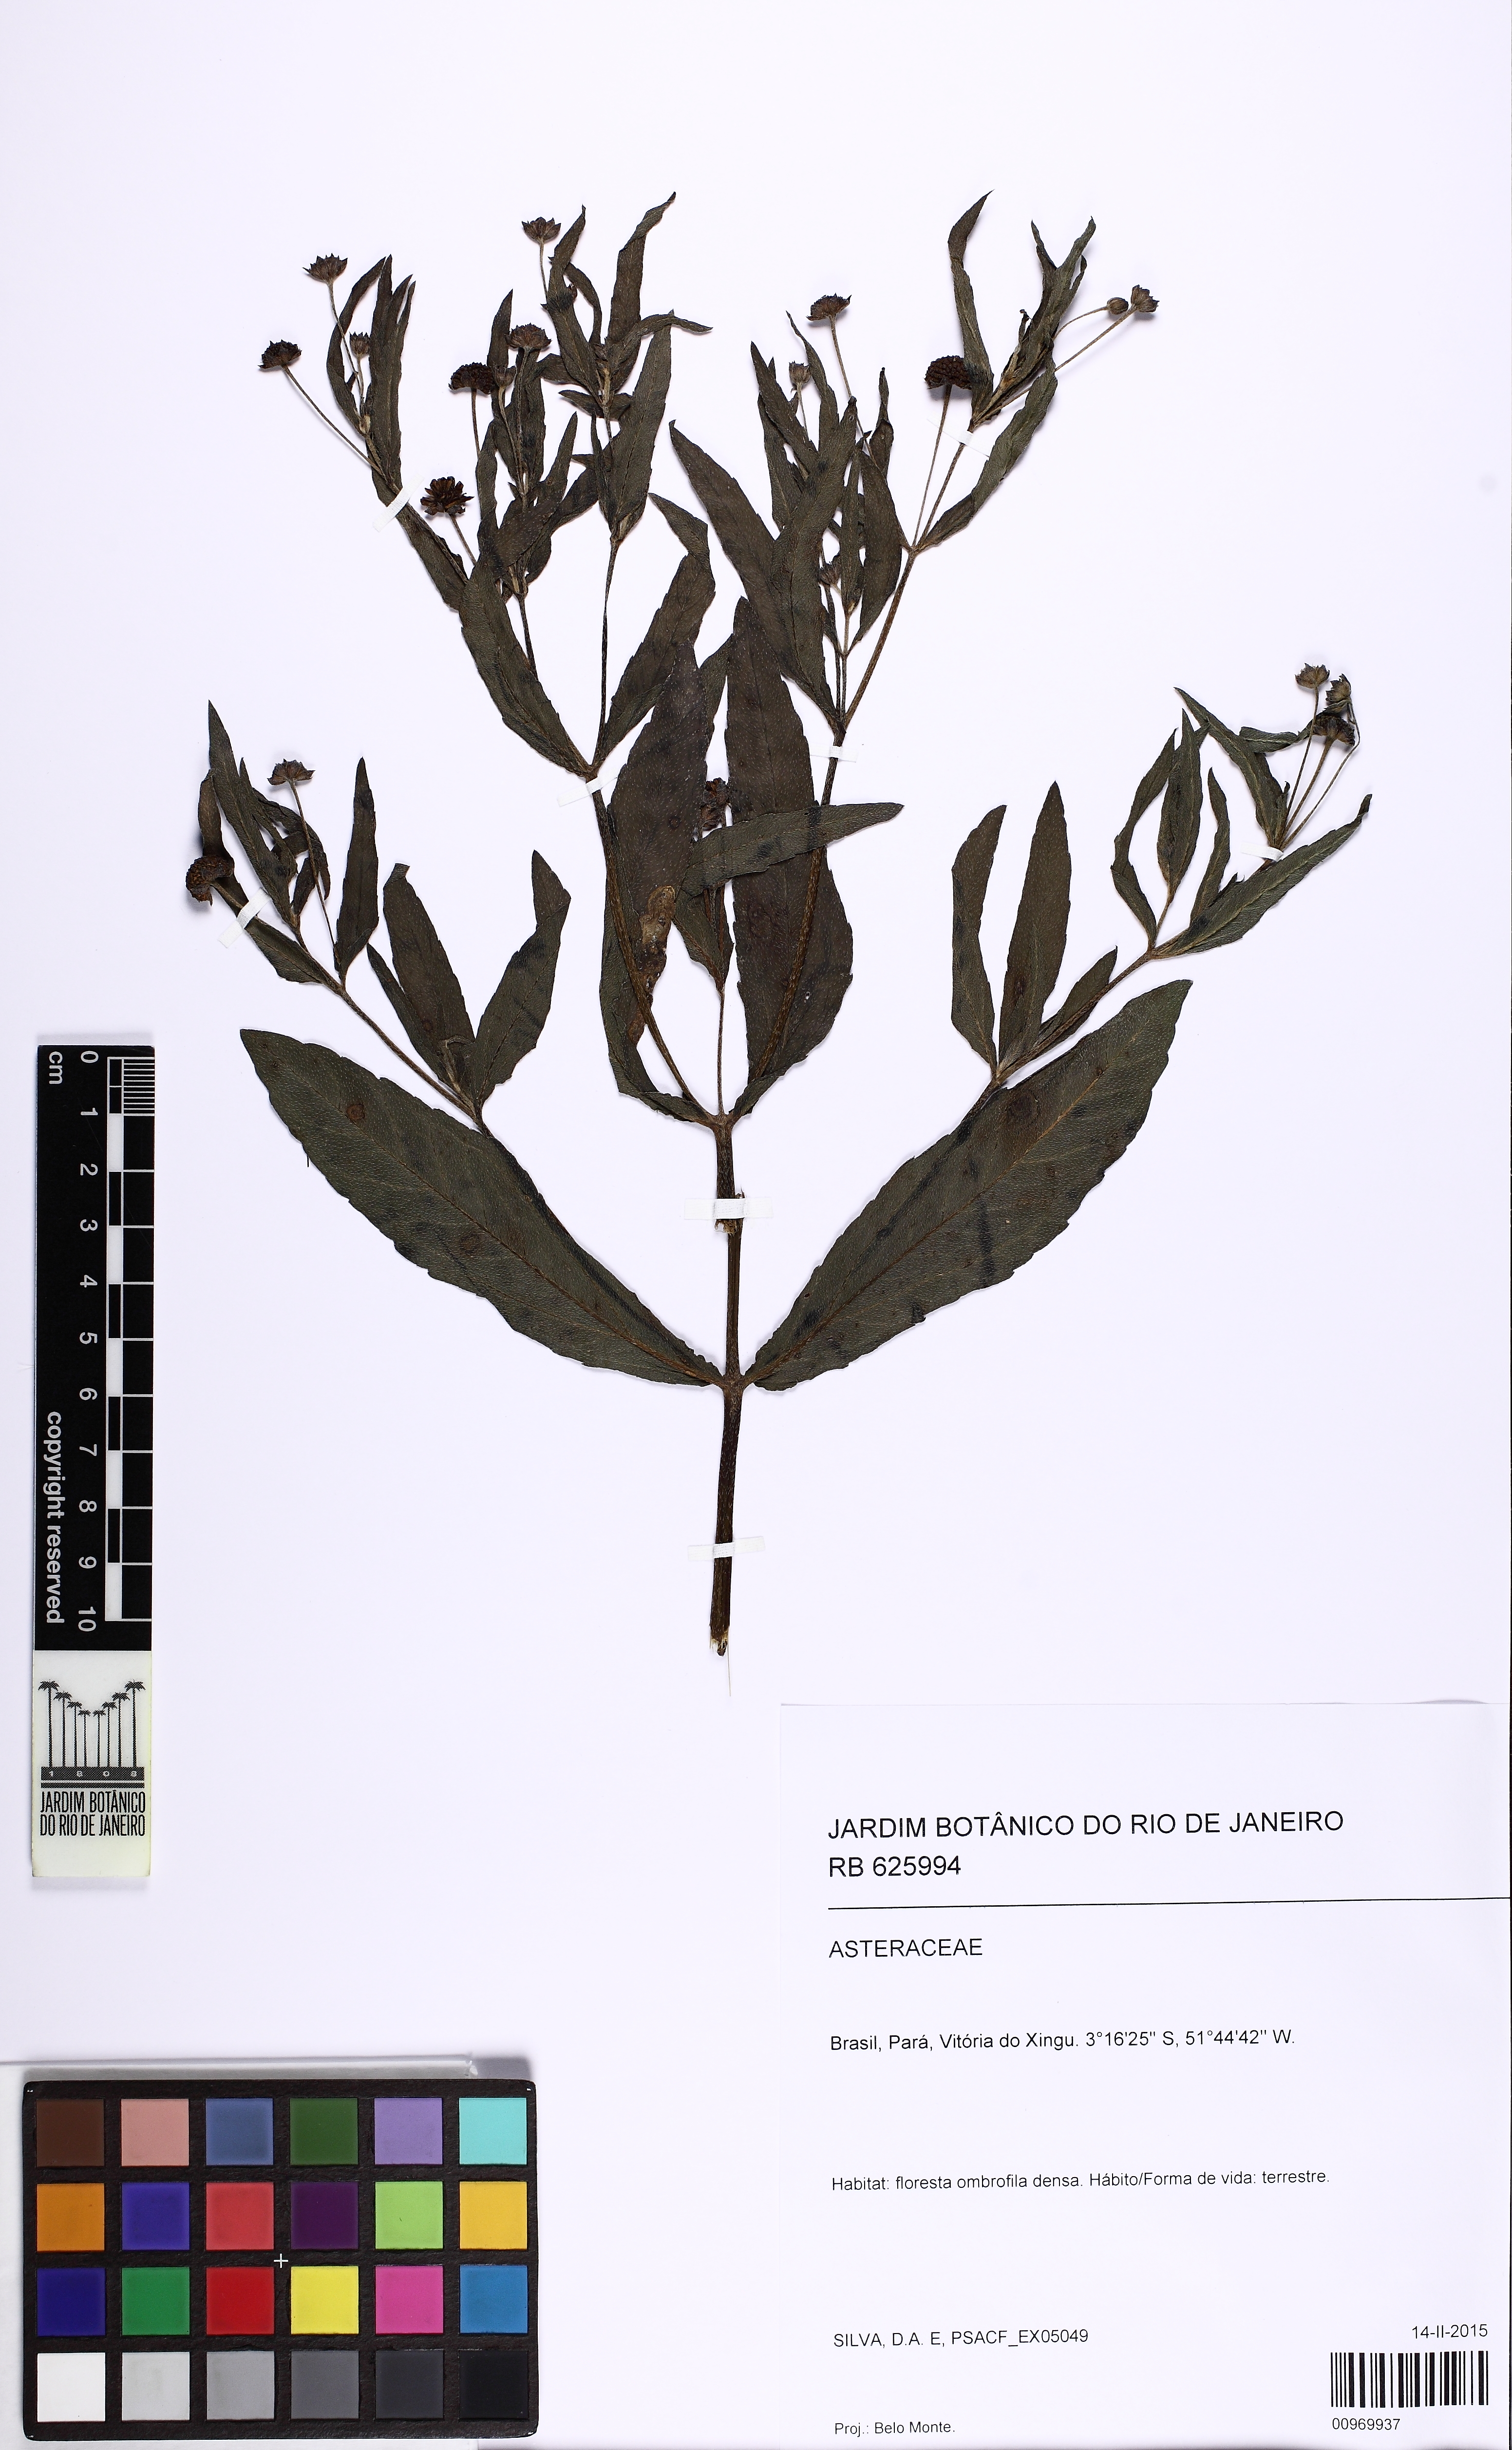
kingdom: Plantae
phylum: Tracheophyta
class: Magnoliopsida
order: Asterales
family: Asteraceae
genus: Eclipta
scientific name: Eclipta prostrata
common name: False daisy
